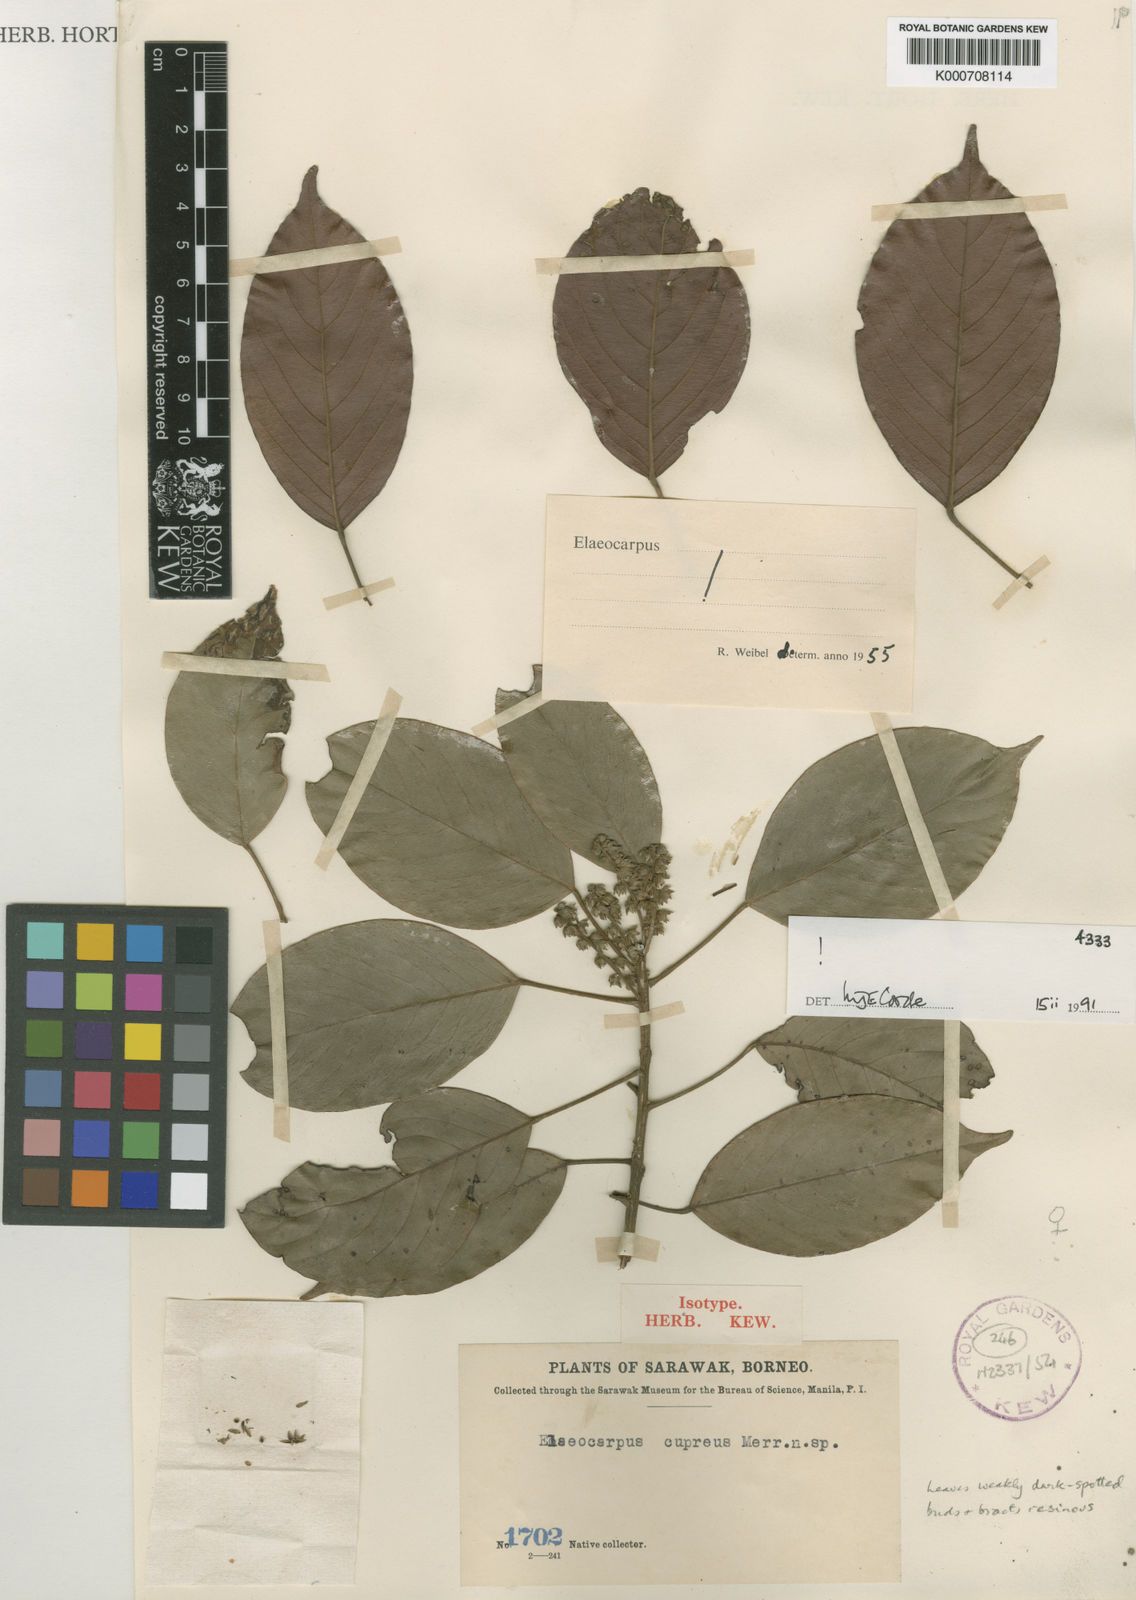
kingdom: Plantae
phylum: Tracheophyta
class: Magnoliopsida
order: Oxalidales
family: Elaeocarpaceae
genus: Elaeocarpus
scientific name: Elaeocarpus cupreus
